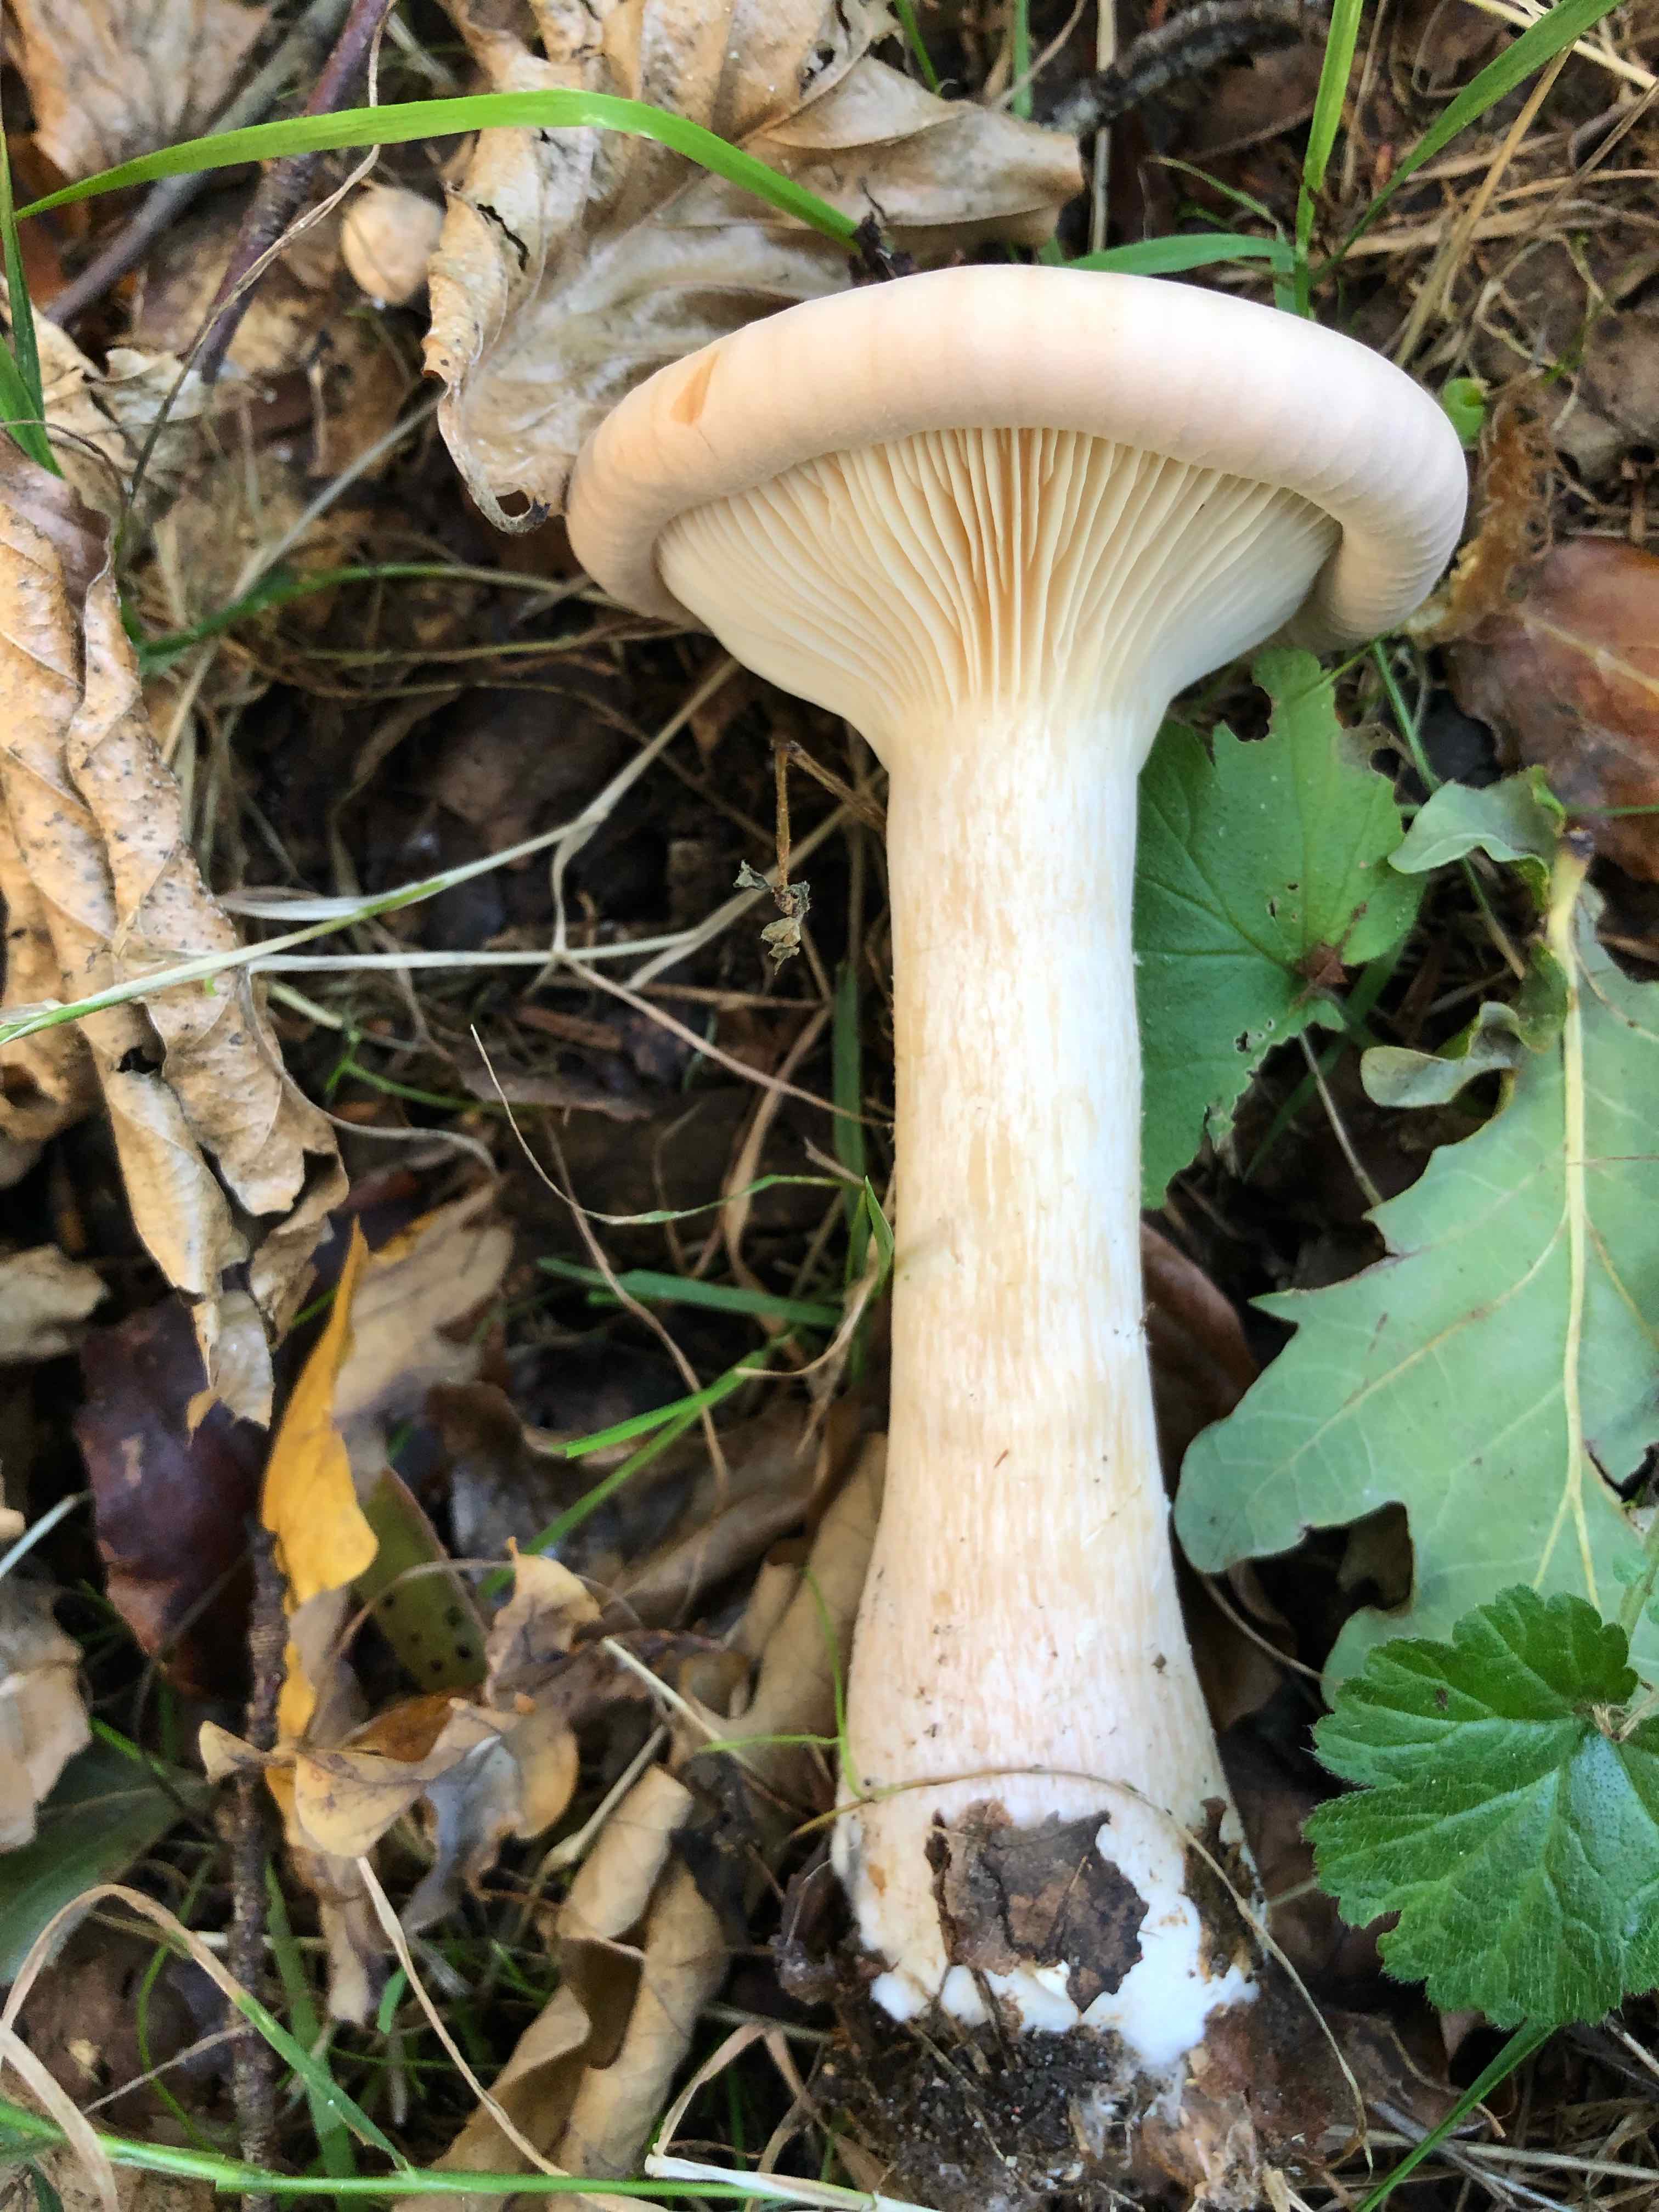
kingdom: Fungi
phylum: Basidiomycota
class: Agaricomycetes
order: Agaricales
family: Tricholomataceae
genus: Infundibulicybe
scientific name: Infundibulicybe geotropa
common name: stor tragthat
